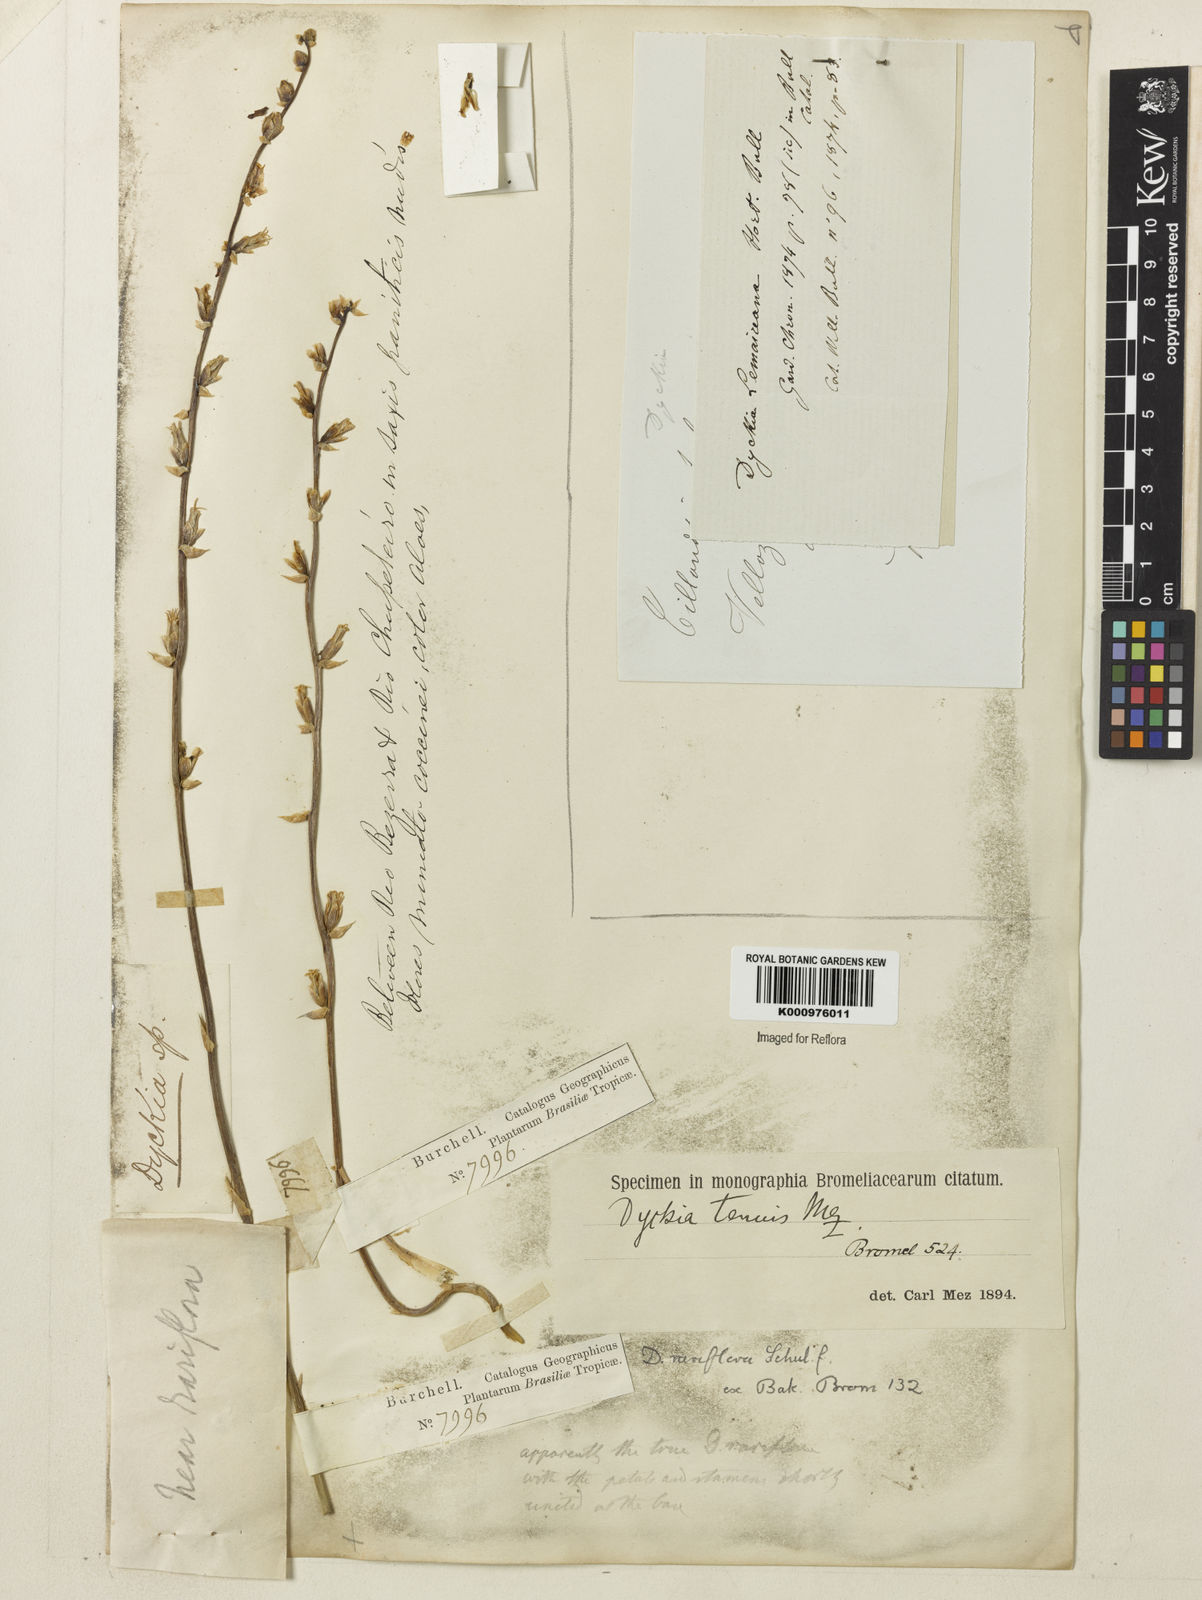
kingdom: Plantae
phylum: Tracheophyta
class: Liliopsida
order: Poales
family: Bromeliaceae
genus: Dyckia
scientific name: Dyckia tenuis
